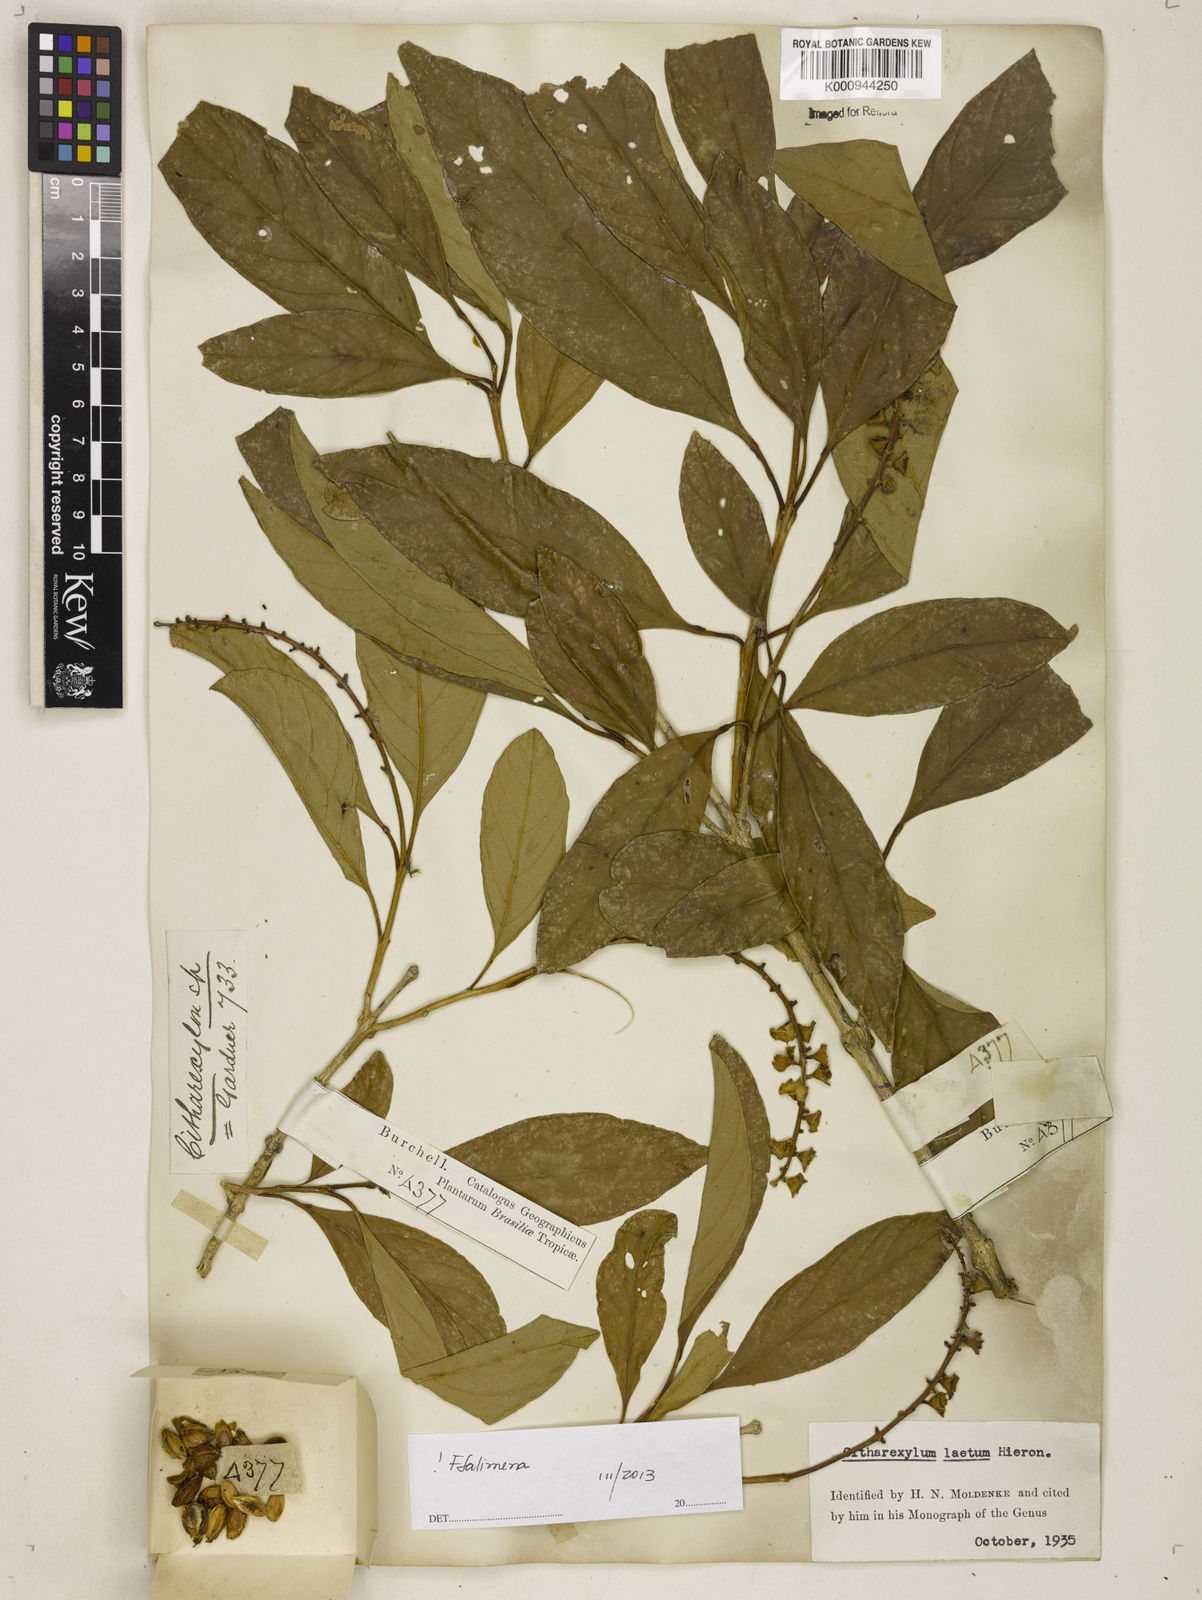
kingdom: Plantae
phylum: Tracheophyta
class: Magnoliopsida
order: Lamiales
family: Verbenaceae
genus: Citharexylum
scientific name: Citharexylum myrianthum
